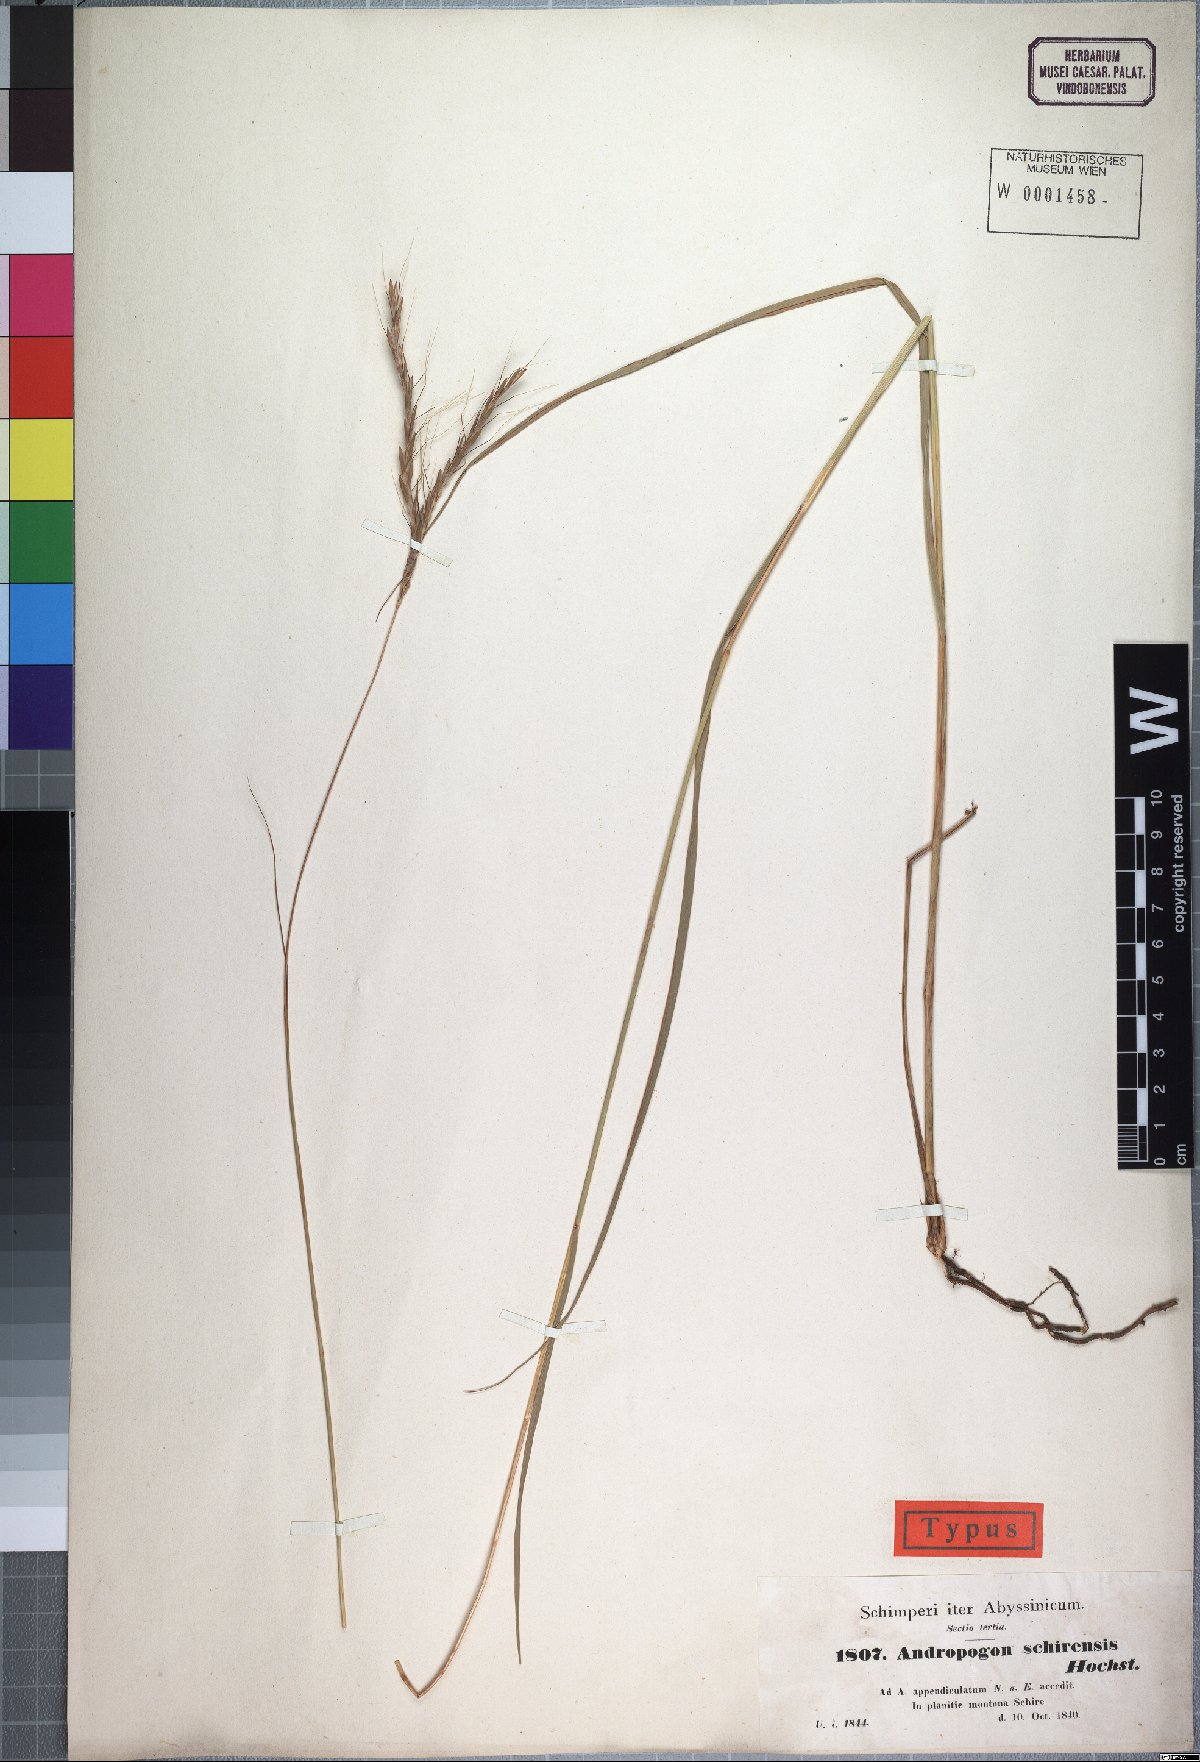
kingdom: Plantae
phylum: Tracheophyta
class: Liliopsida
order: Poales
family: Poaceae
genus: Andropogon
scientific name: Andropogon schirensis
